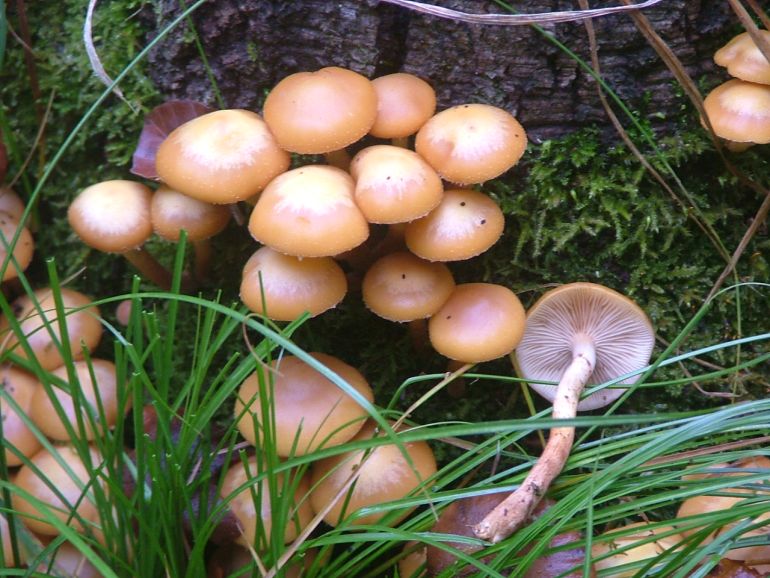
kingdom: Fungi
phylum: Basidiomycota
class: Agaricomycetes
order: Agaricales
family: Strophariaceae
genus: Kuehneromyces
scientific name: Kuehneromyces mutabilis
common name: foranderlig skælhat
